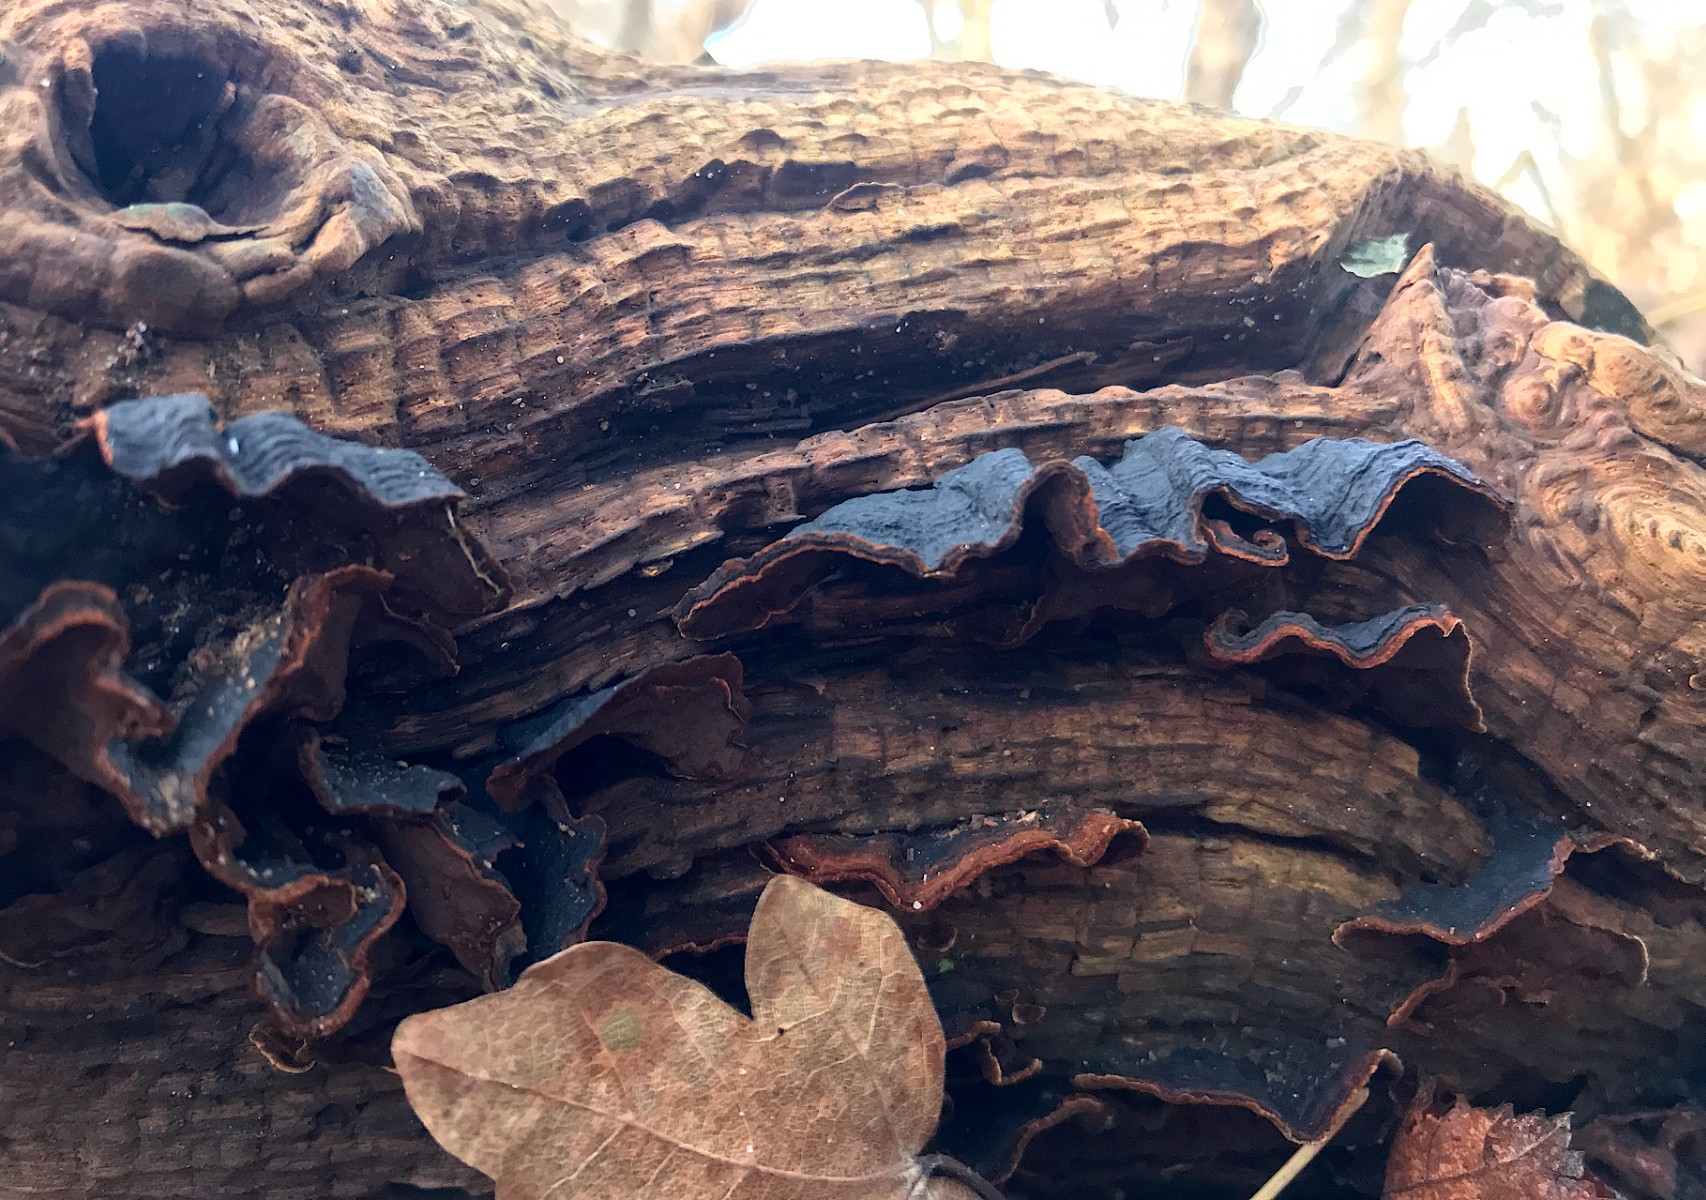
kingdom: Fungi
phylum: Basidiomycota
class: Agaricomycetes
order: Hymenochaetales
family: Hymenochaetaceae
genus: Hymenochaete
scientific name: Hymenochaete rubiginosa
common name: stiv ruslædersvamp
